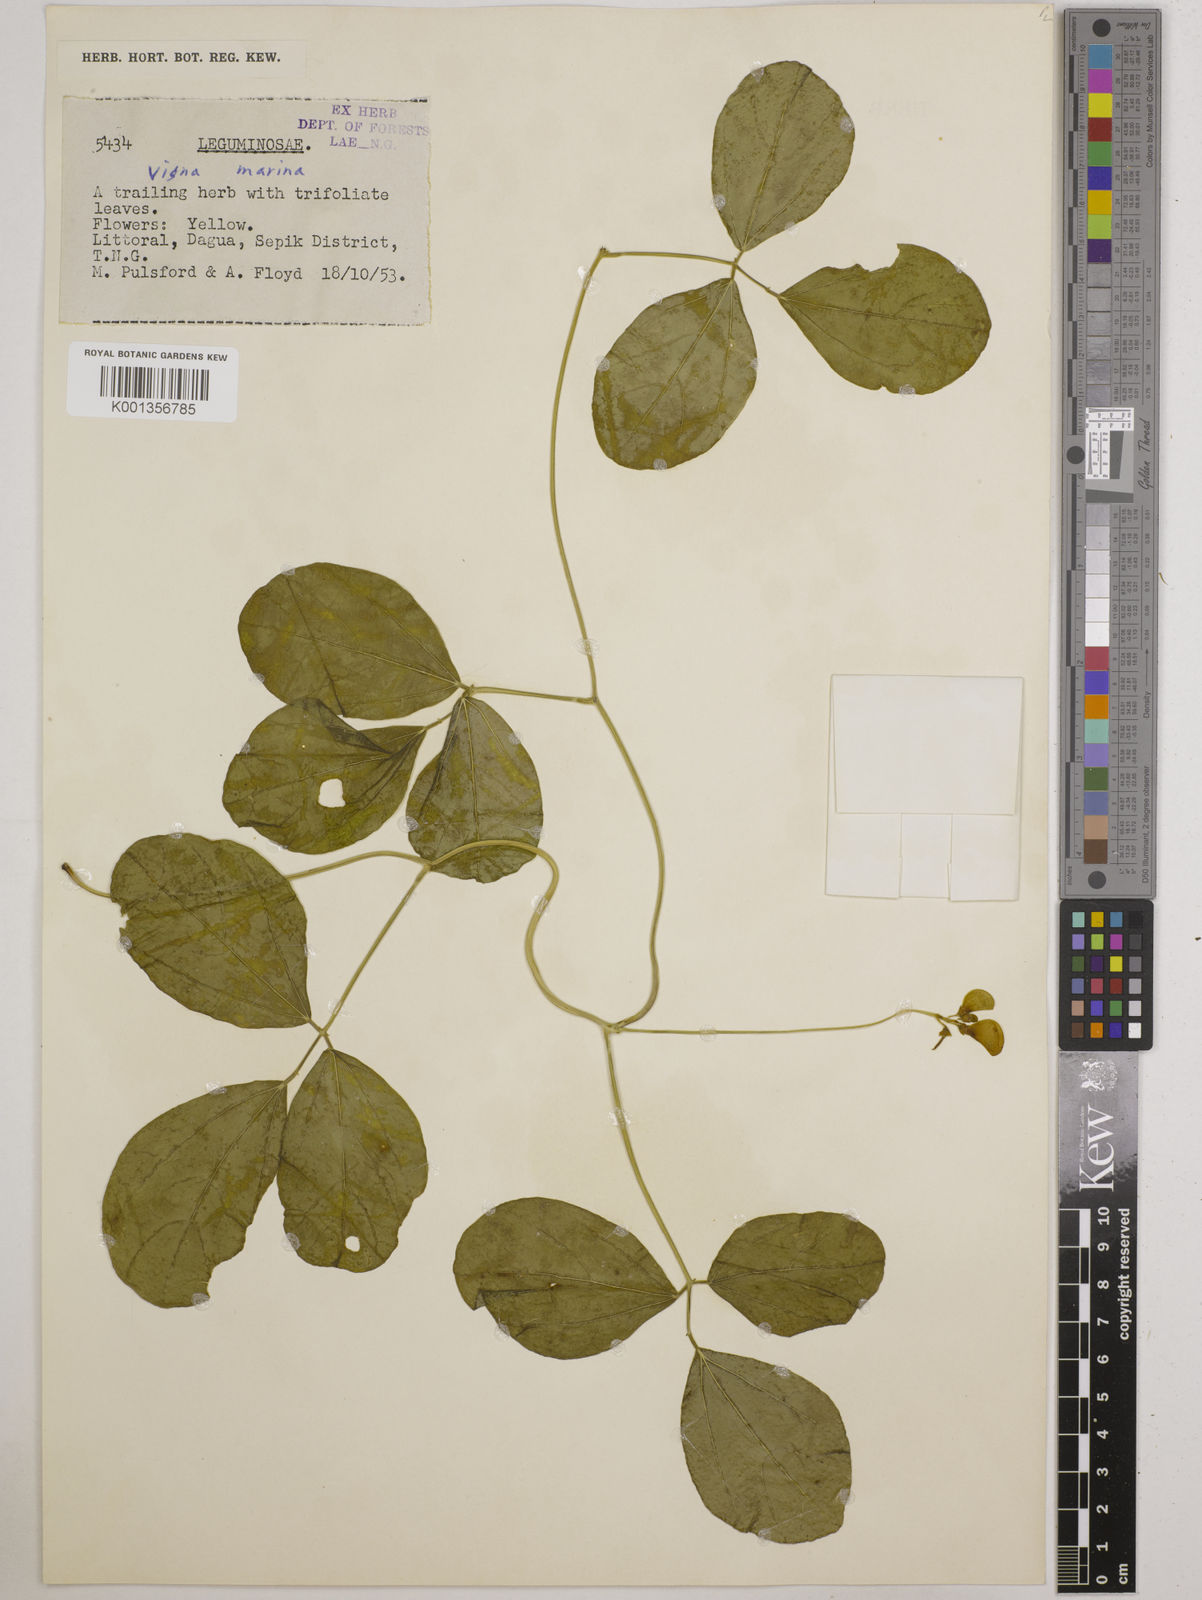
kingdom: Plantae
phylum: Tracheophyta
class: Magnoliopsida
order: Fabales
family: Fabaceae
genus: Vigna
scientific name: Vigna marina
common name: Dune-bean
